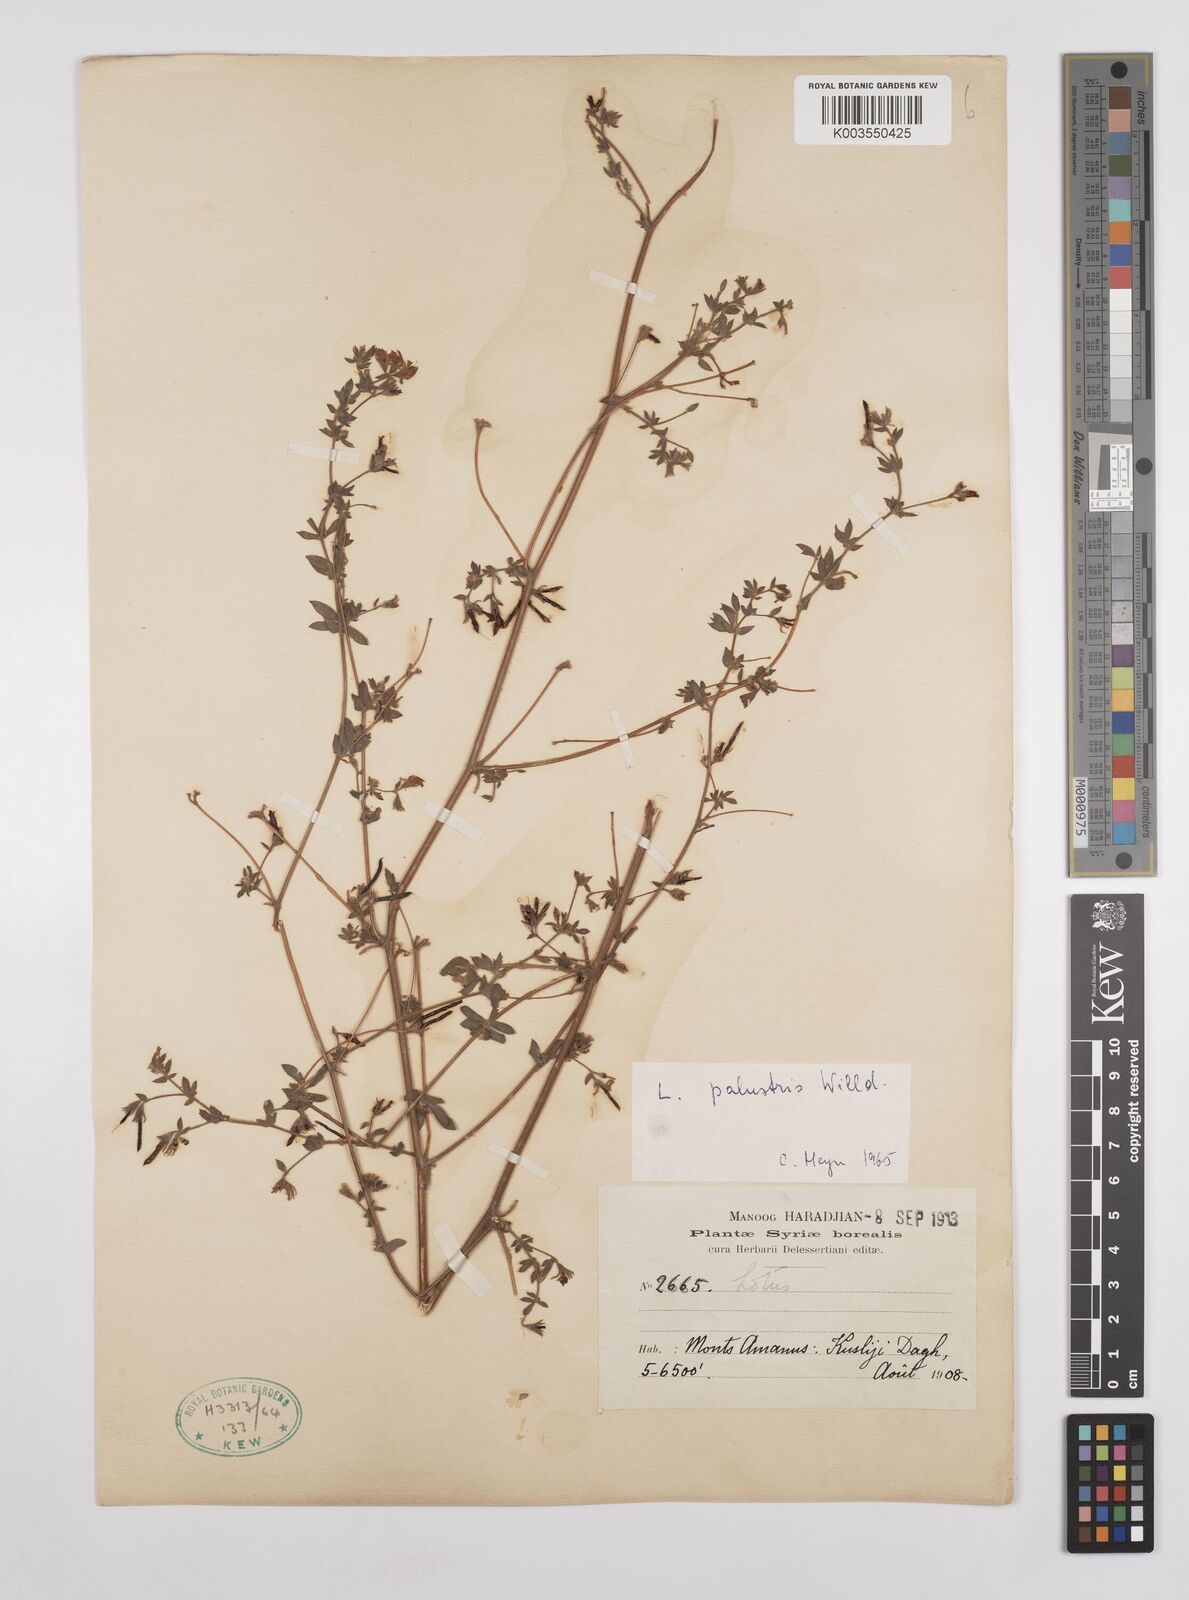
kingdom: Plantae
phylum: Tracheophyta
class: Magnoliopsida
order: Fabales
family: Fabaceae
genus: Lotus
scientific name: Lotus palustris
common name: Large birds-foot trefoil
